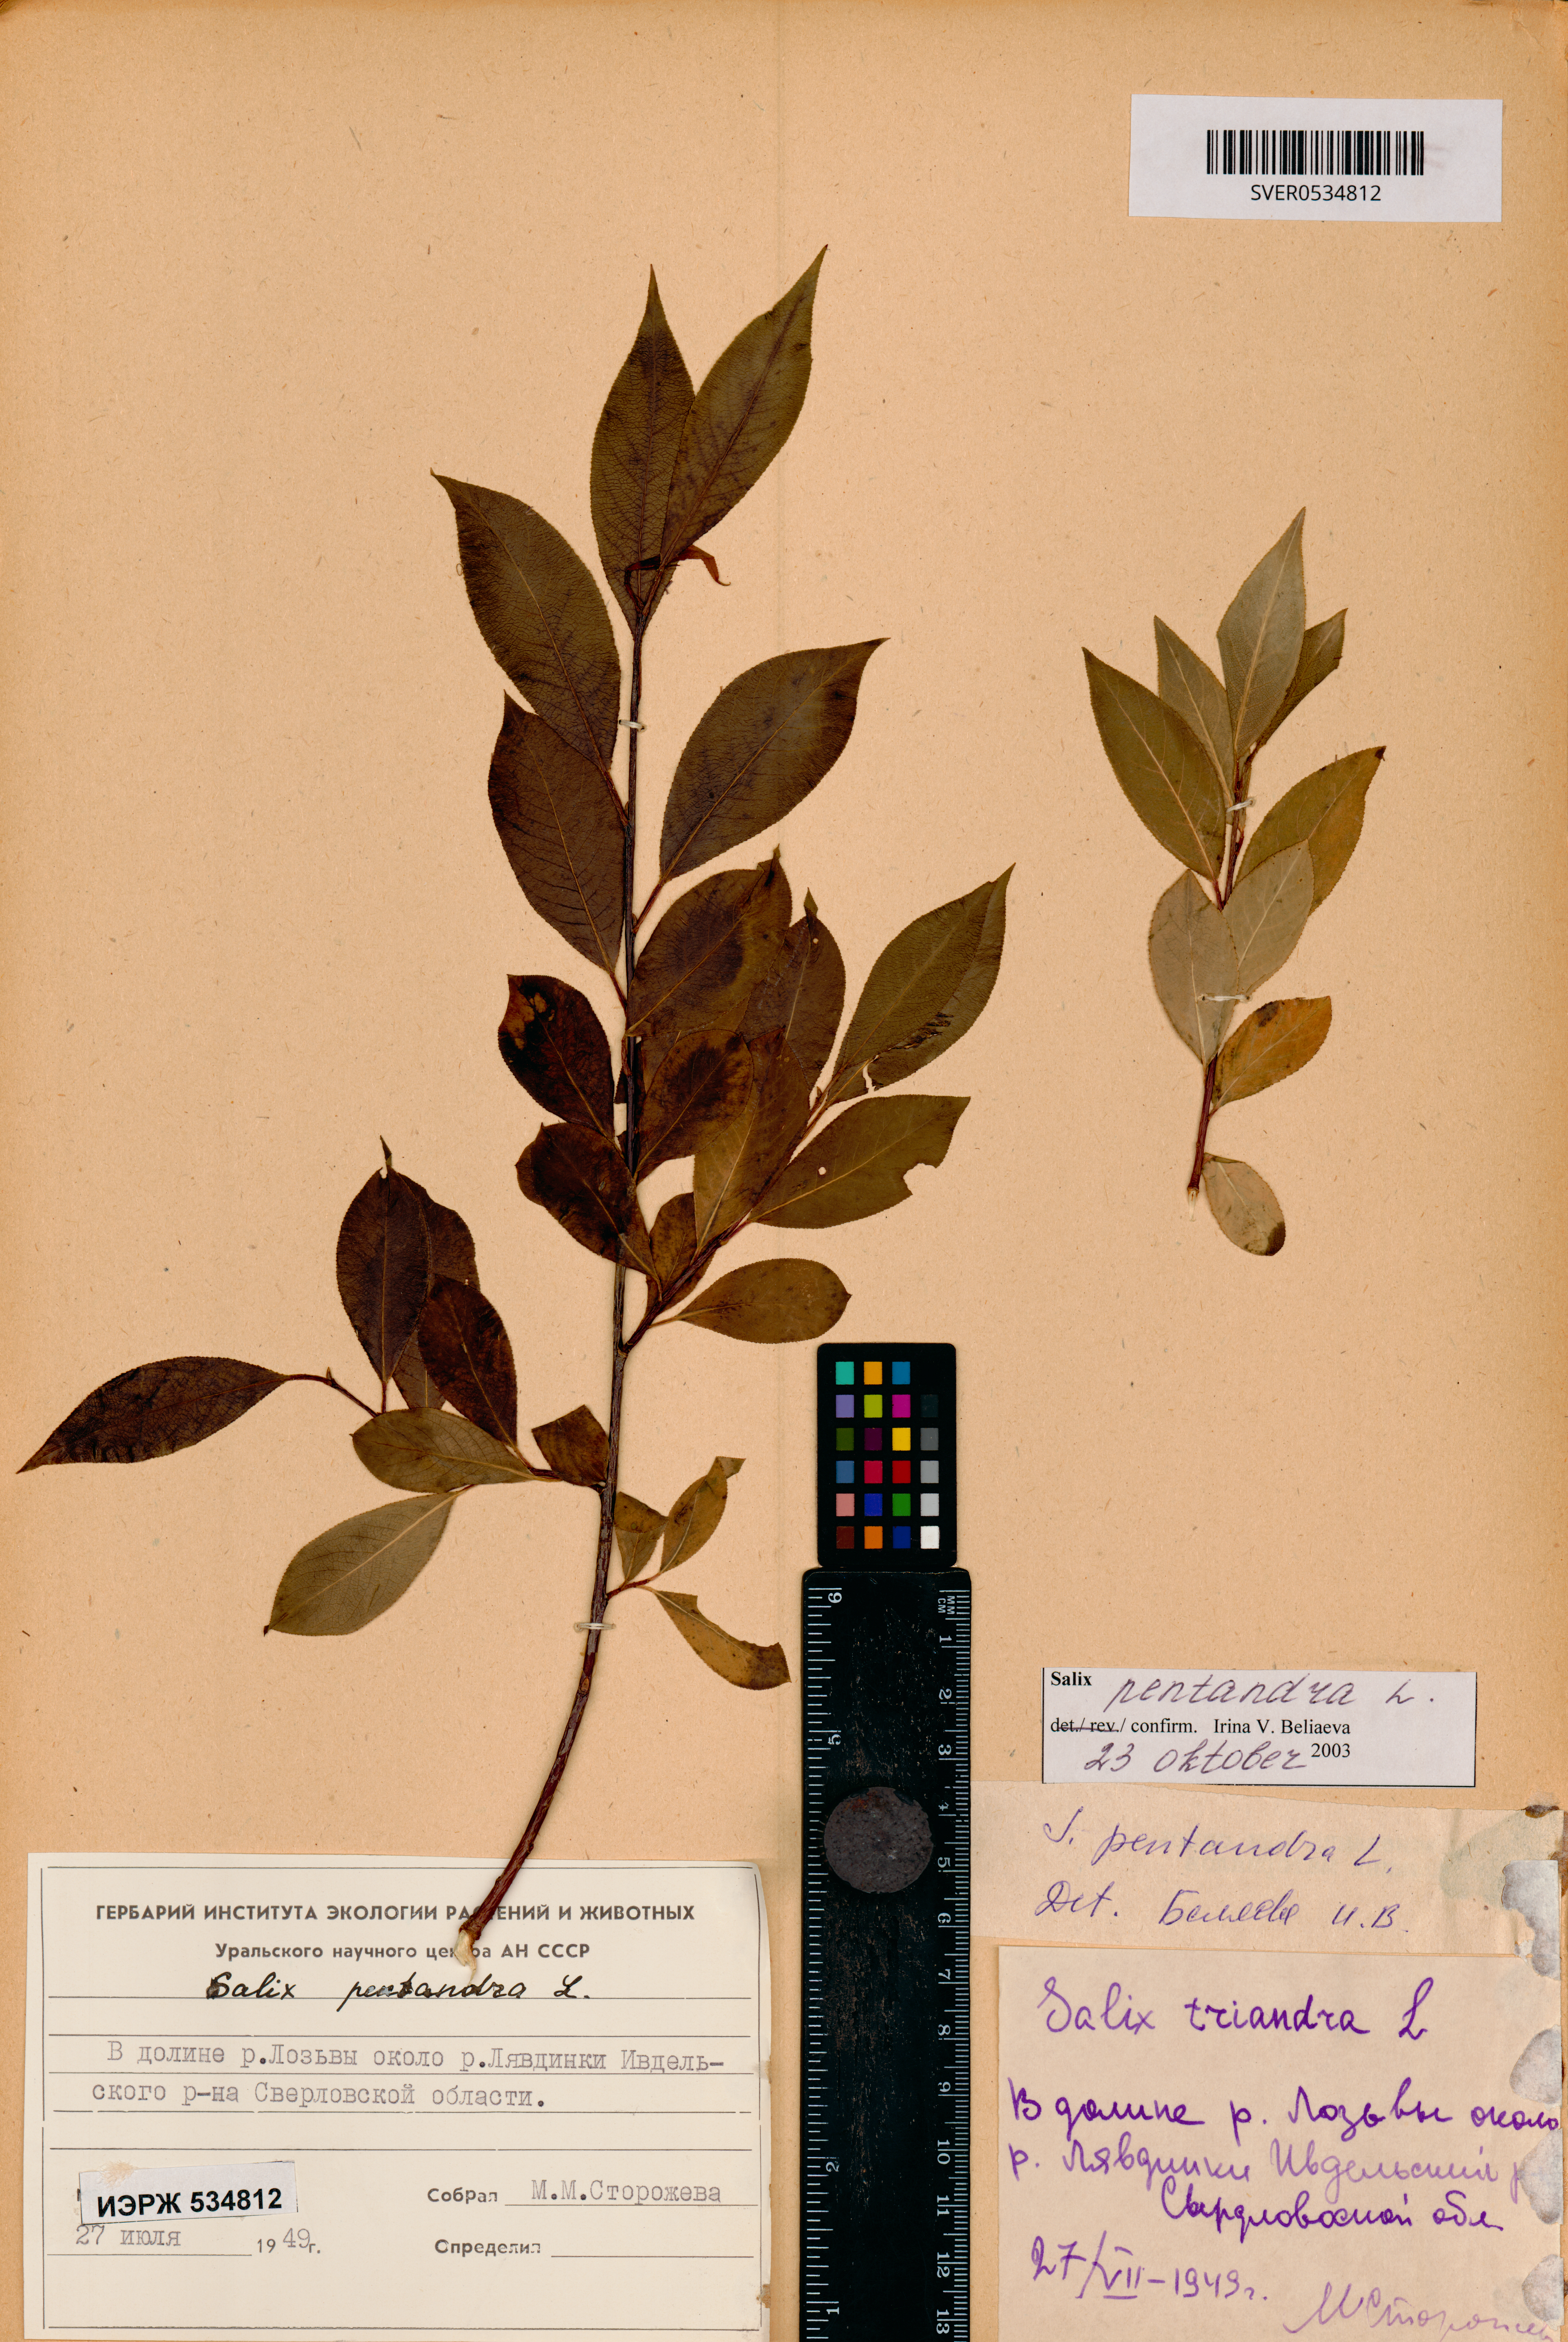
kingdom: Plantae
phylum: Tracheophyta
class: Magnoliopsida
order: Malpighiales
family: Salicaceae
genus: Salix
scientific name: Salix pentandra
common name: Bay willow
